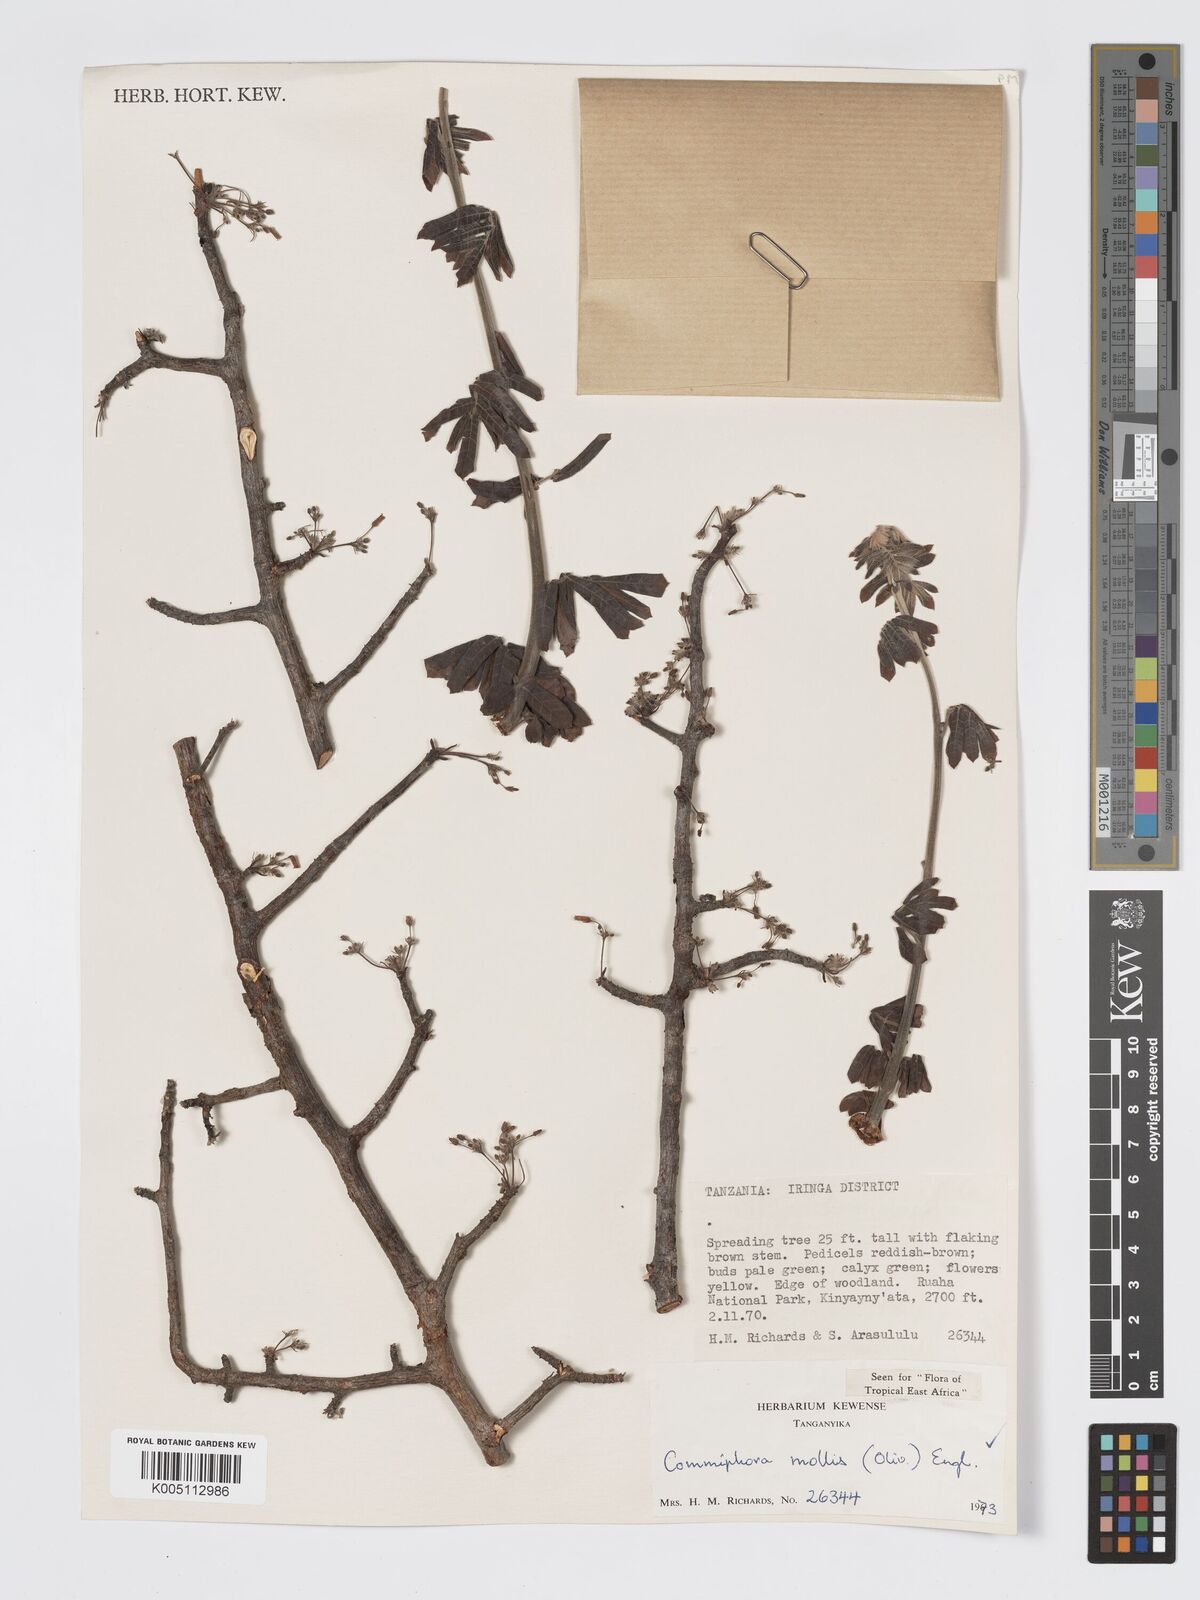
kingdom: Plantae
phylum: Tracheophyta
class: Magnoliopsida
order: Sapindales
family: Burseraceae
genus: Commiphora
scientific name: Commiphora mollis
